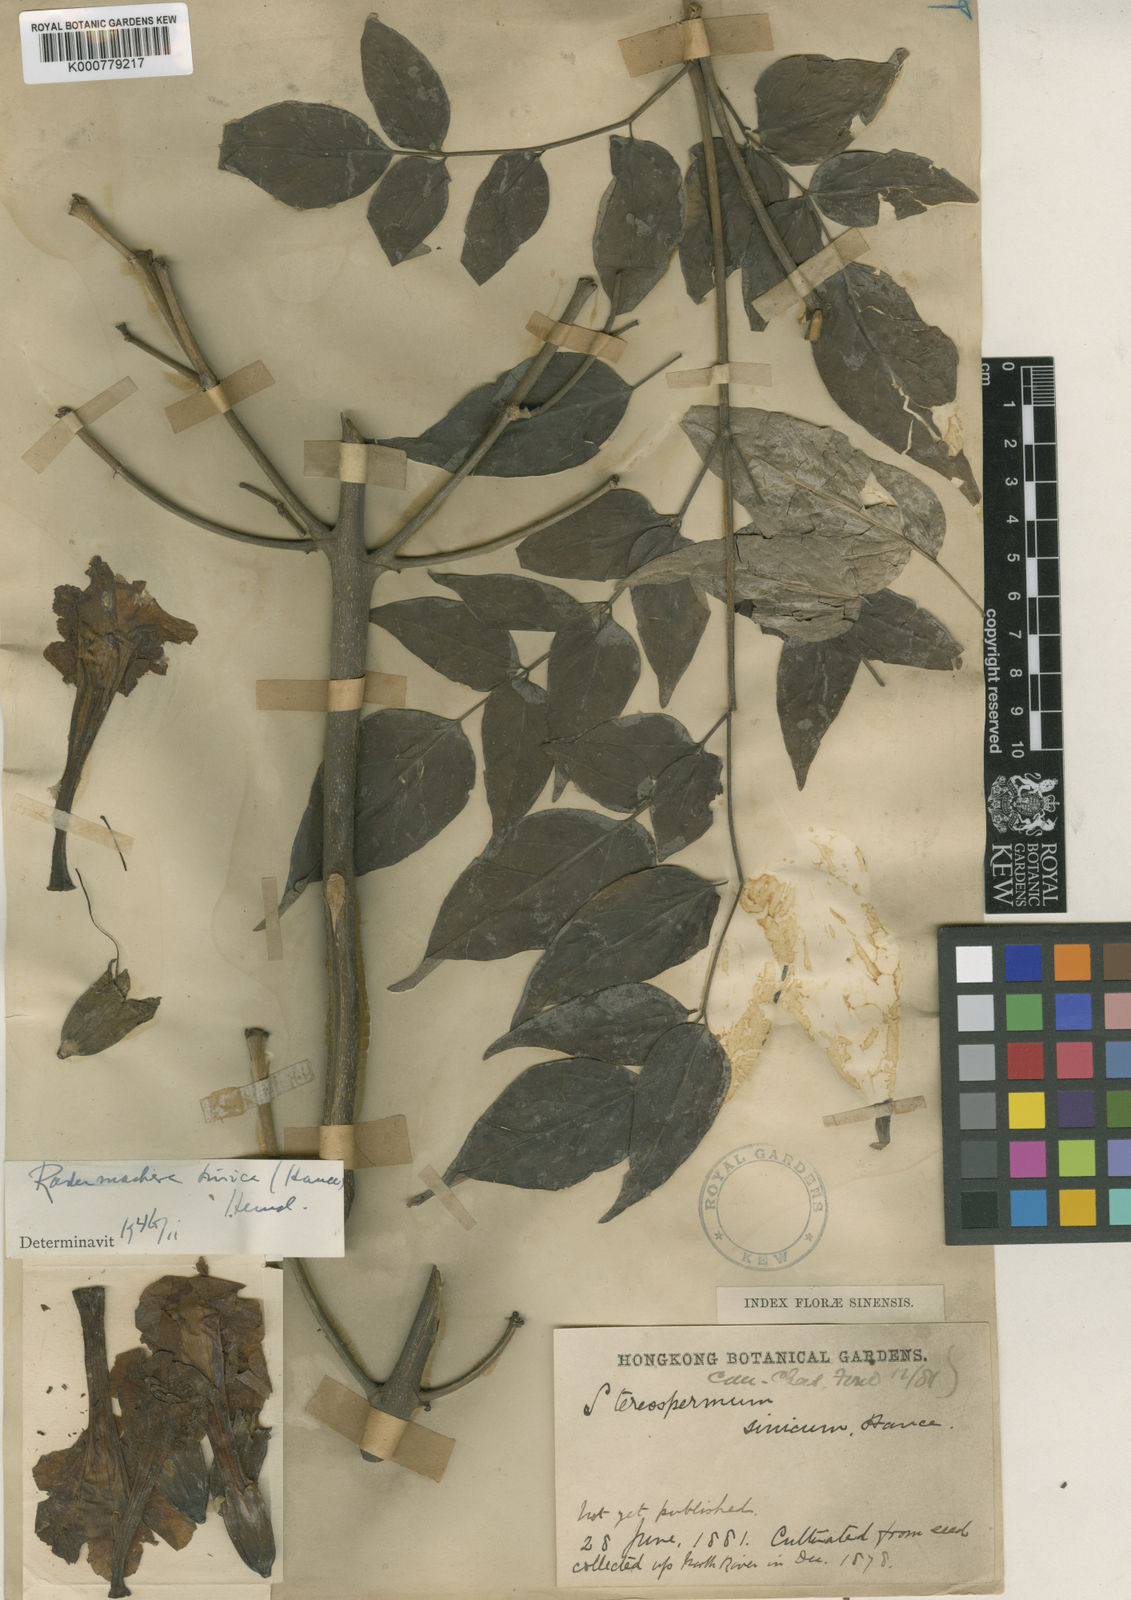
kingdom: Plantae
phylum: Tracheophyta
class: Magnoliopsida
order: Lamiales
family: Bignoniaceae
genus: Radermachera
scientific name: Radermachera sinica
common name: China doll plant
